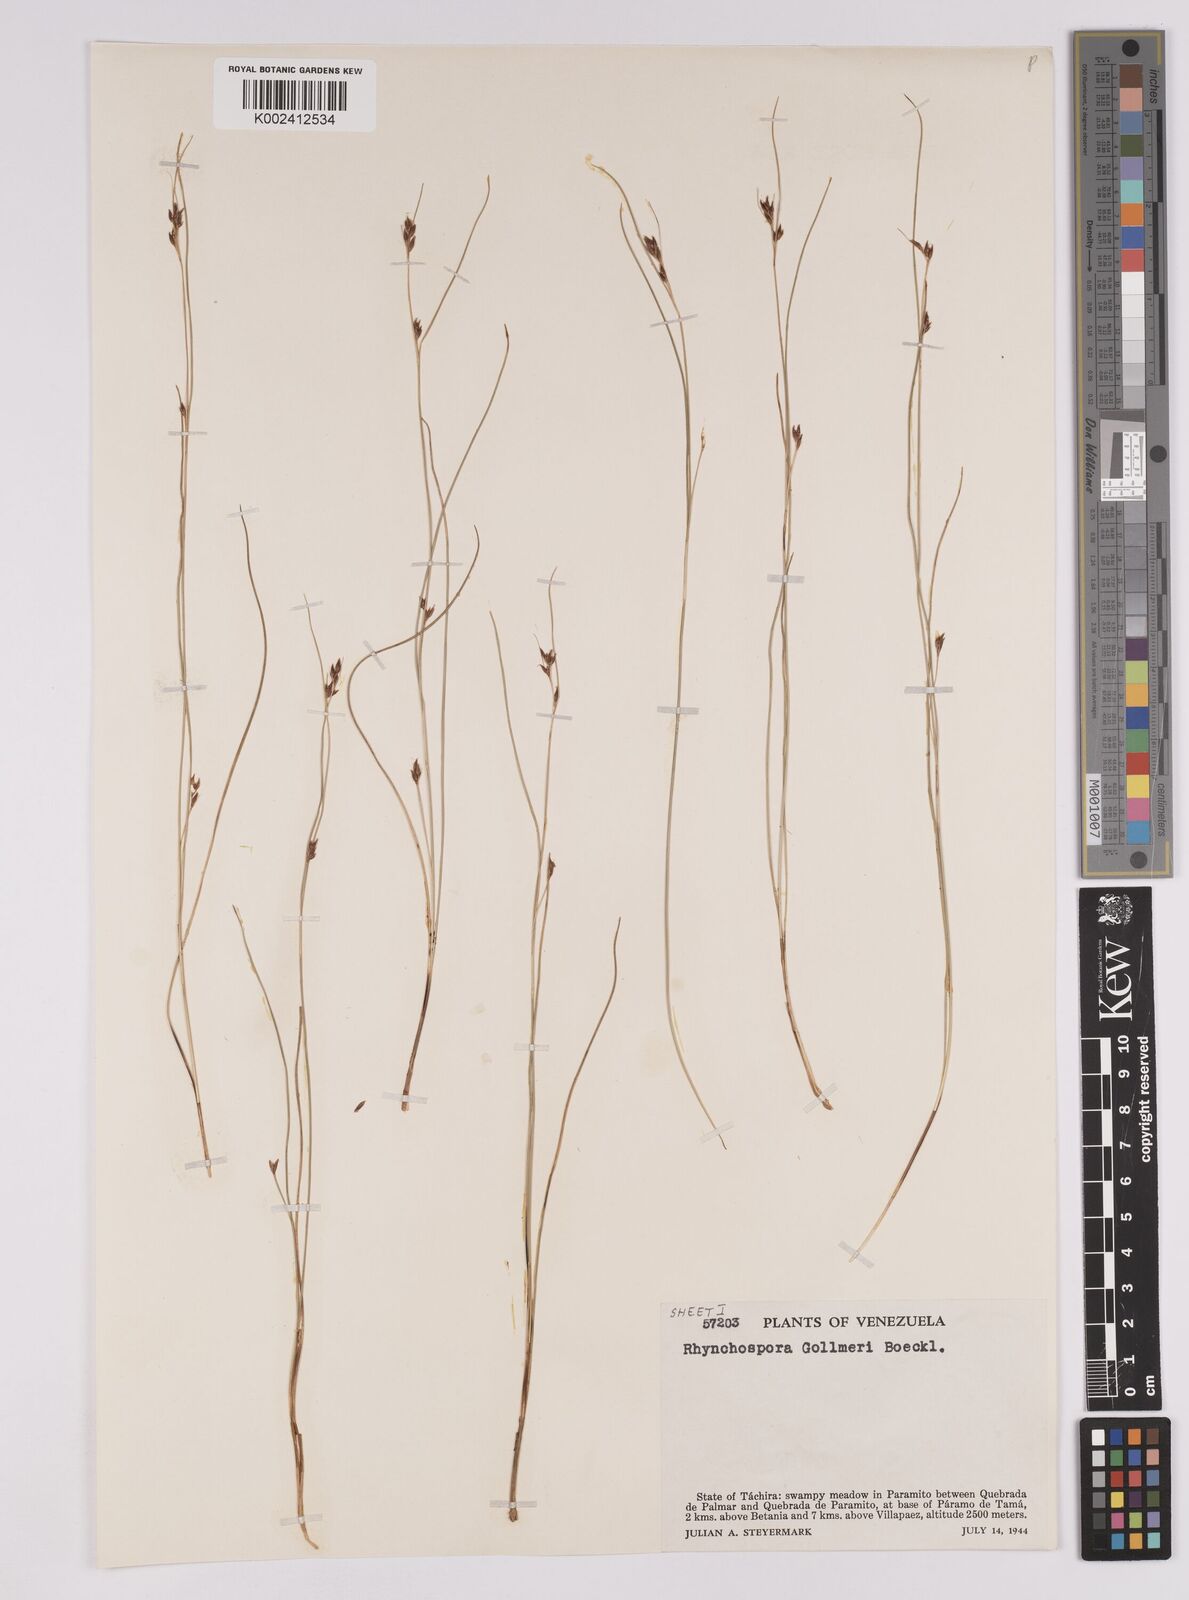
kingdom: Plantae
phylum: Tracheophyta
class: Liliopsida
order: Poales
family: Cyperaceae
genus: Rhynchospora
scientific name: Rhynchospora gollmeri
